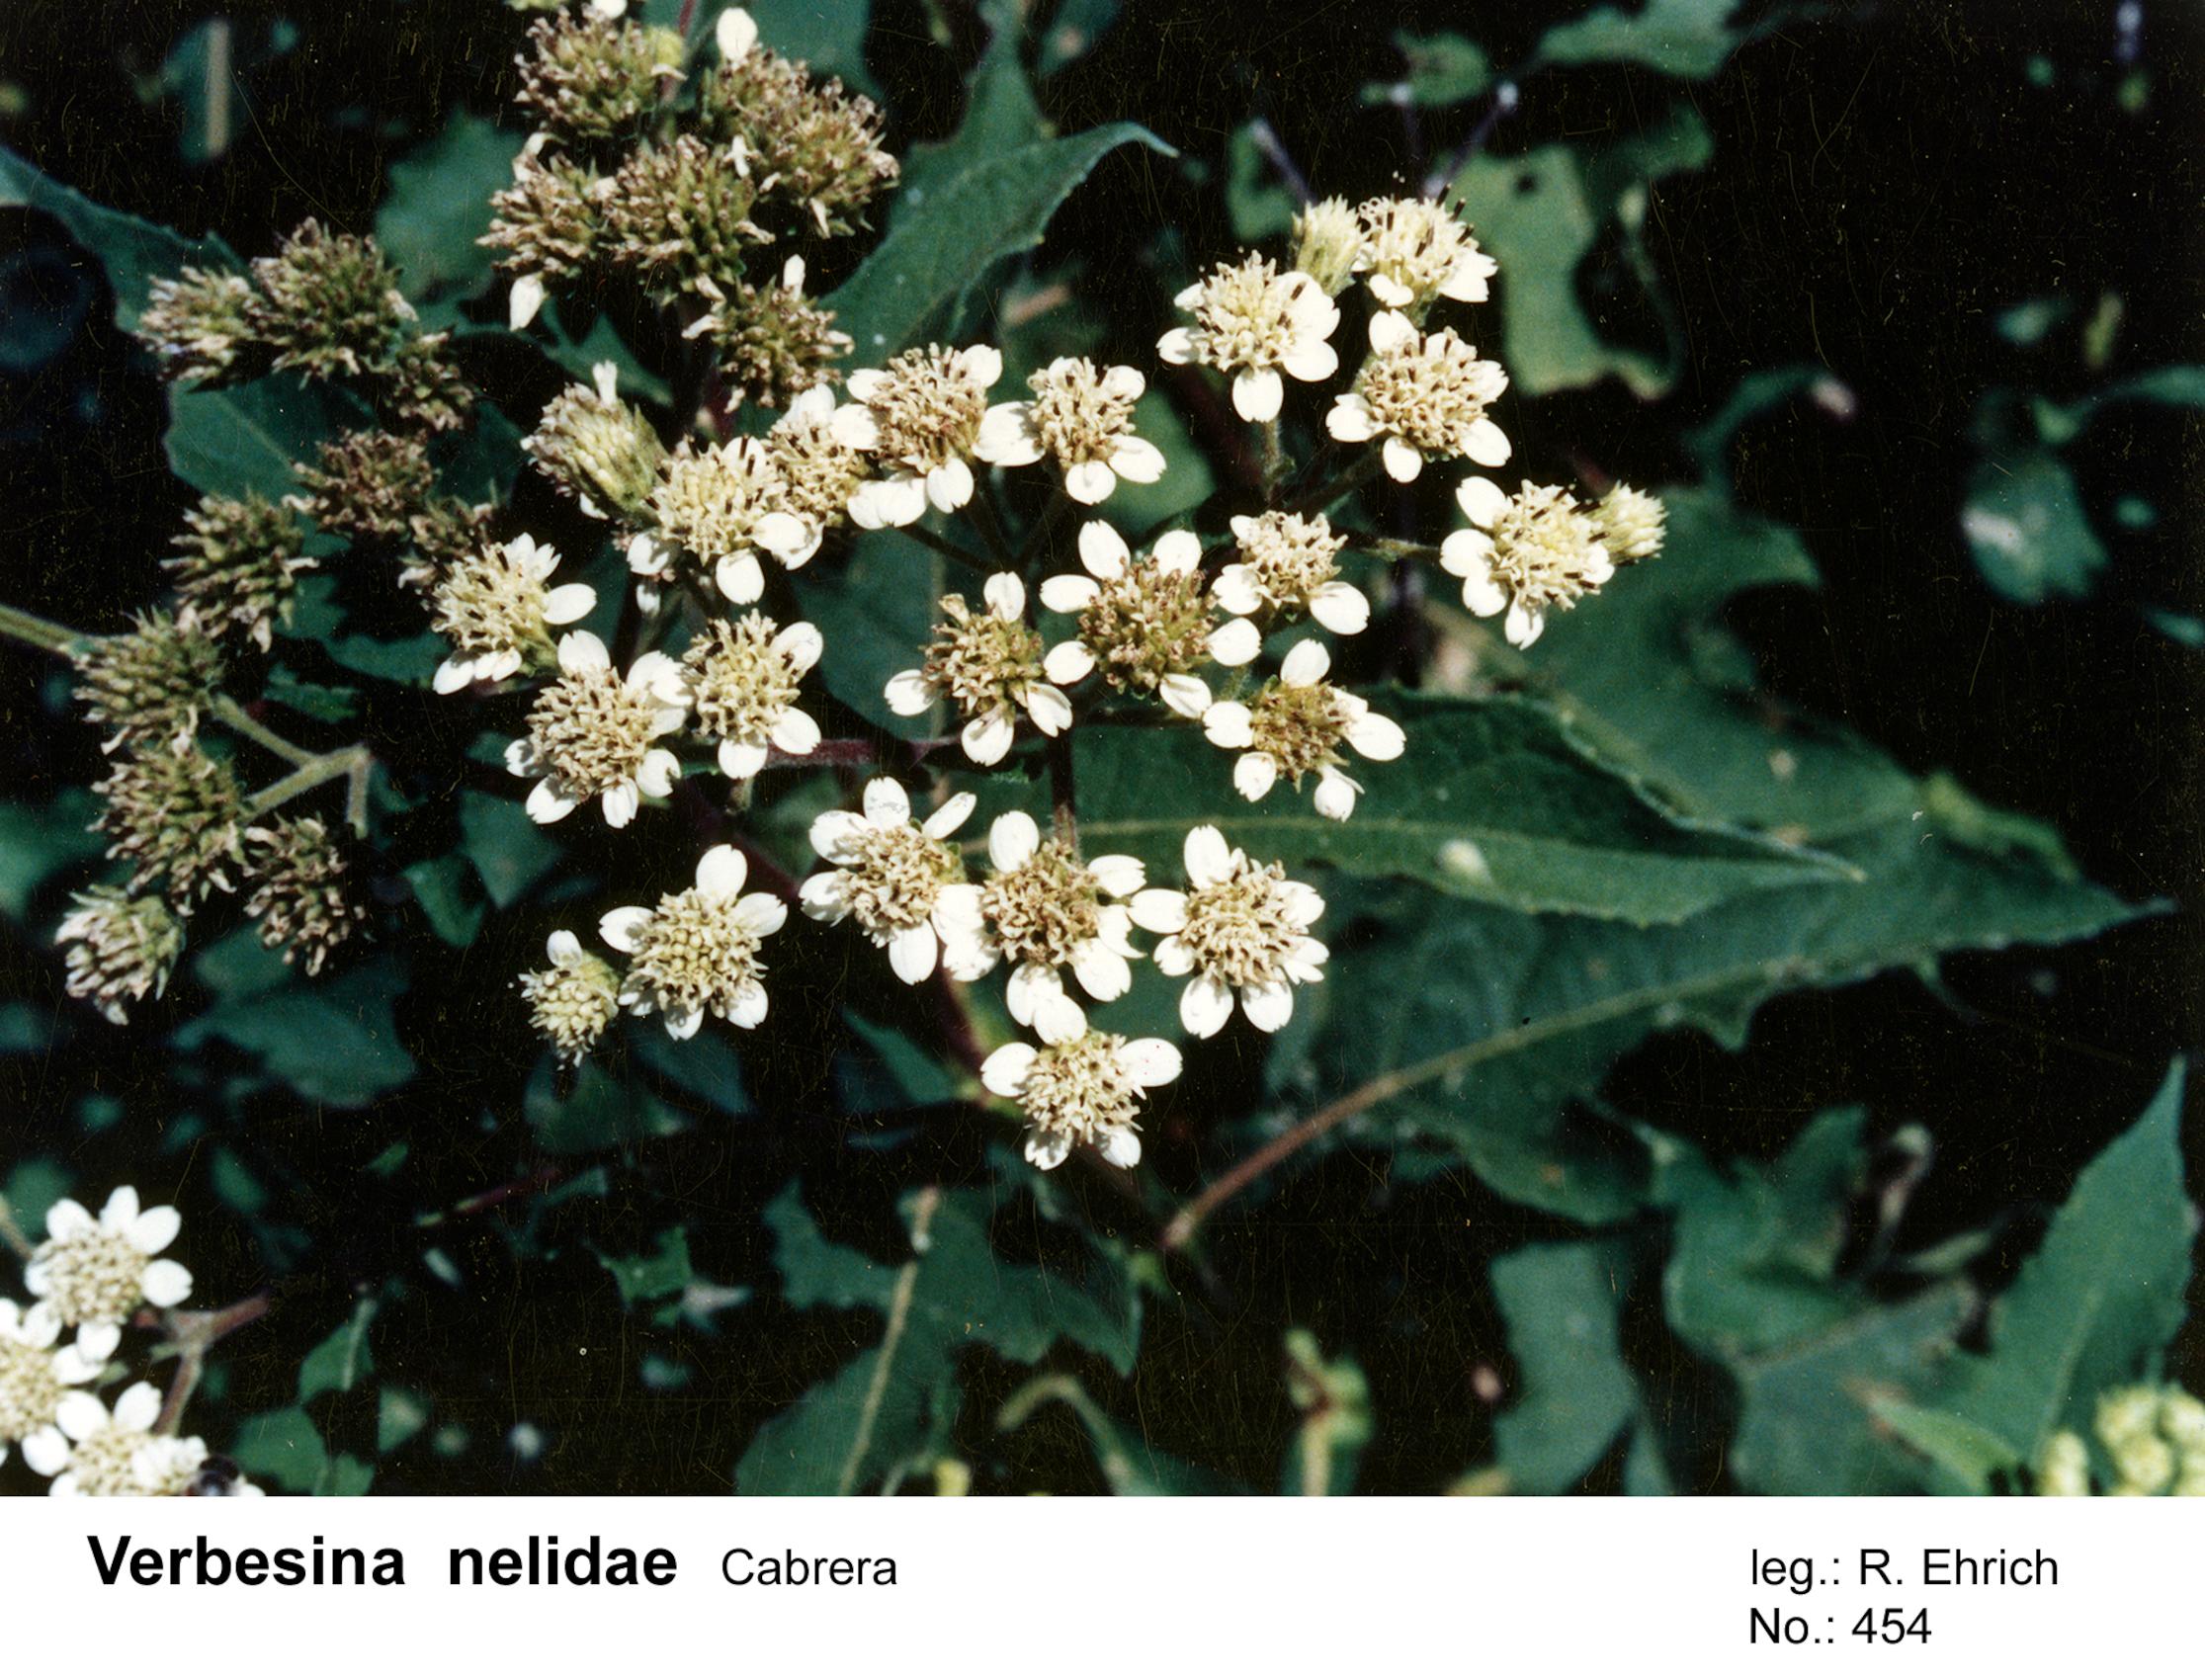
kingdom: Plantae
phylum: Tracheophyta
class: Magnoliopsida
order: Asterales
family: Asteraceae
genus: Verbesina
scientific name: Verbesina macrophylla
